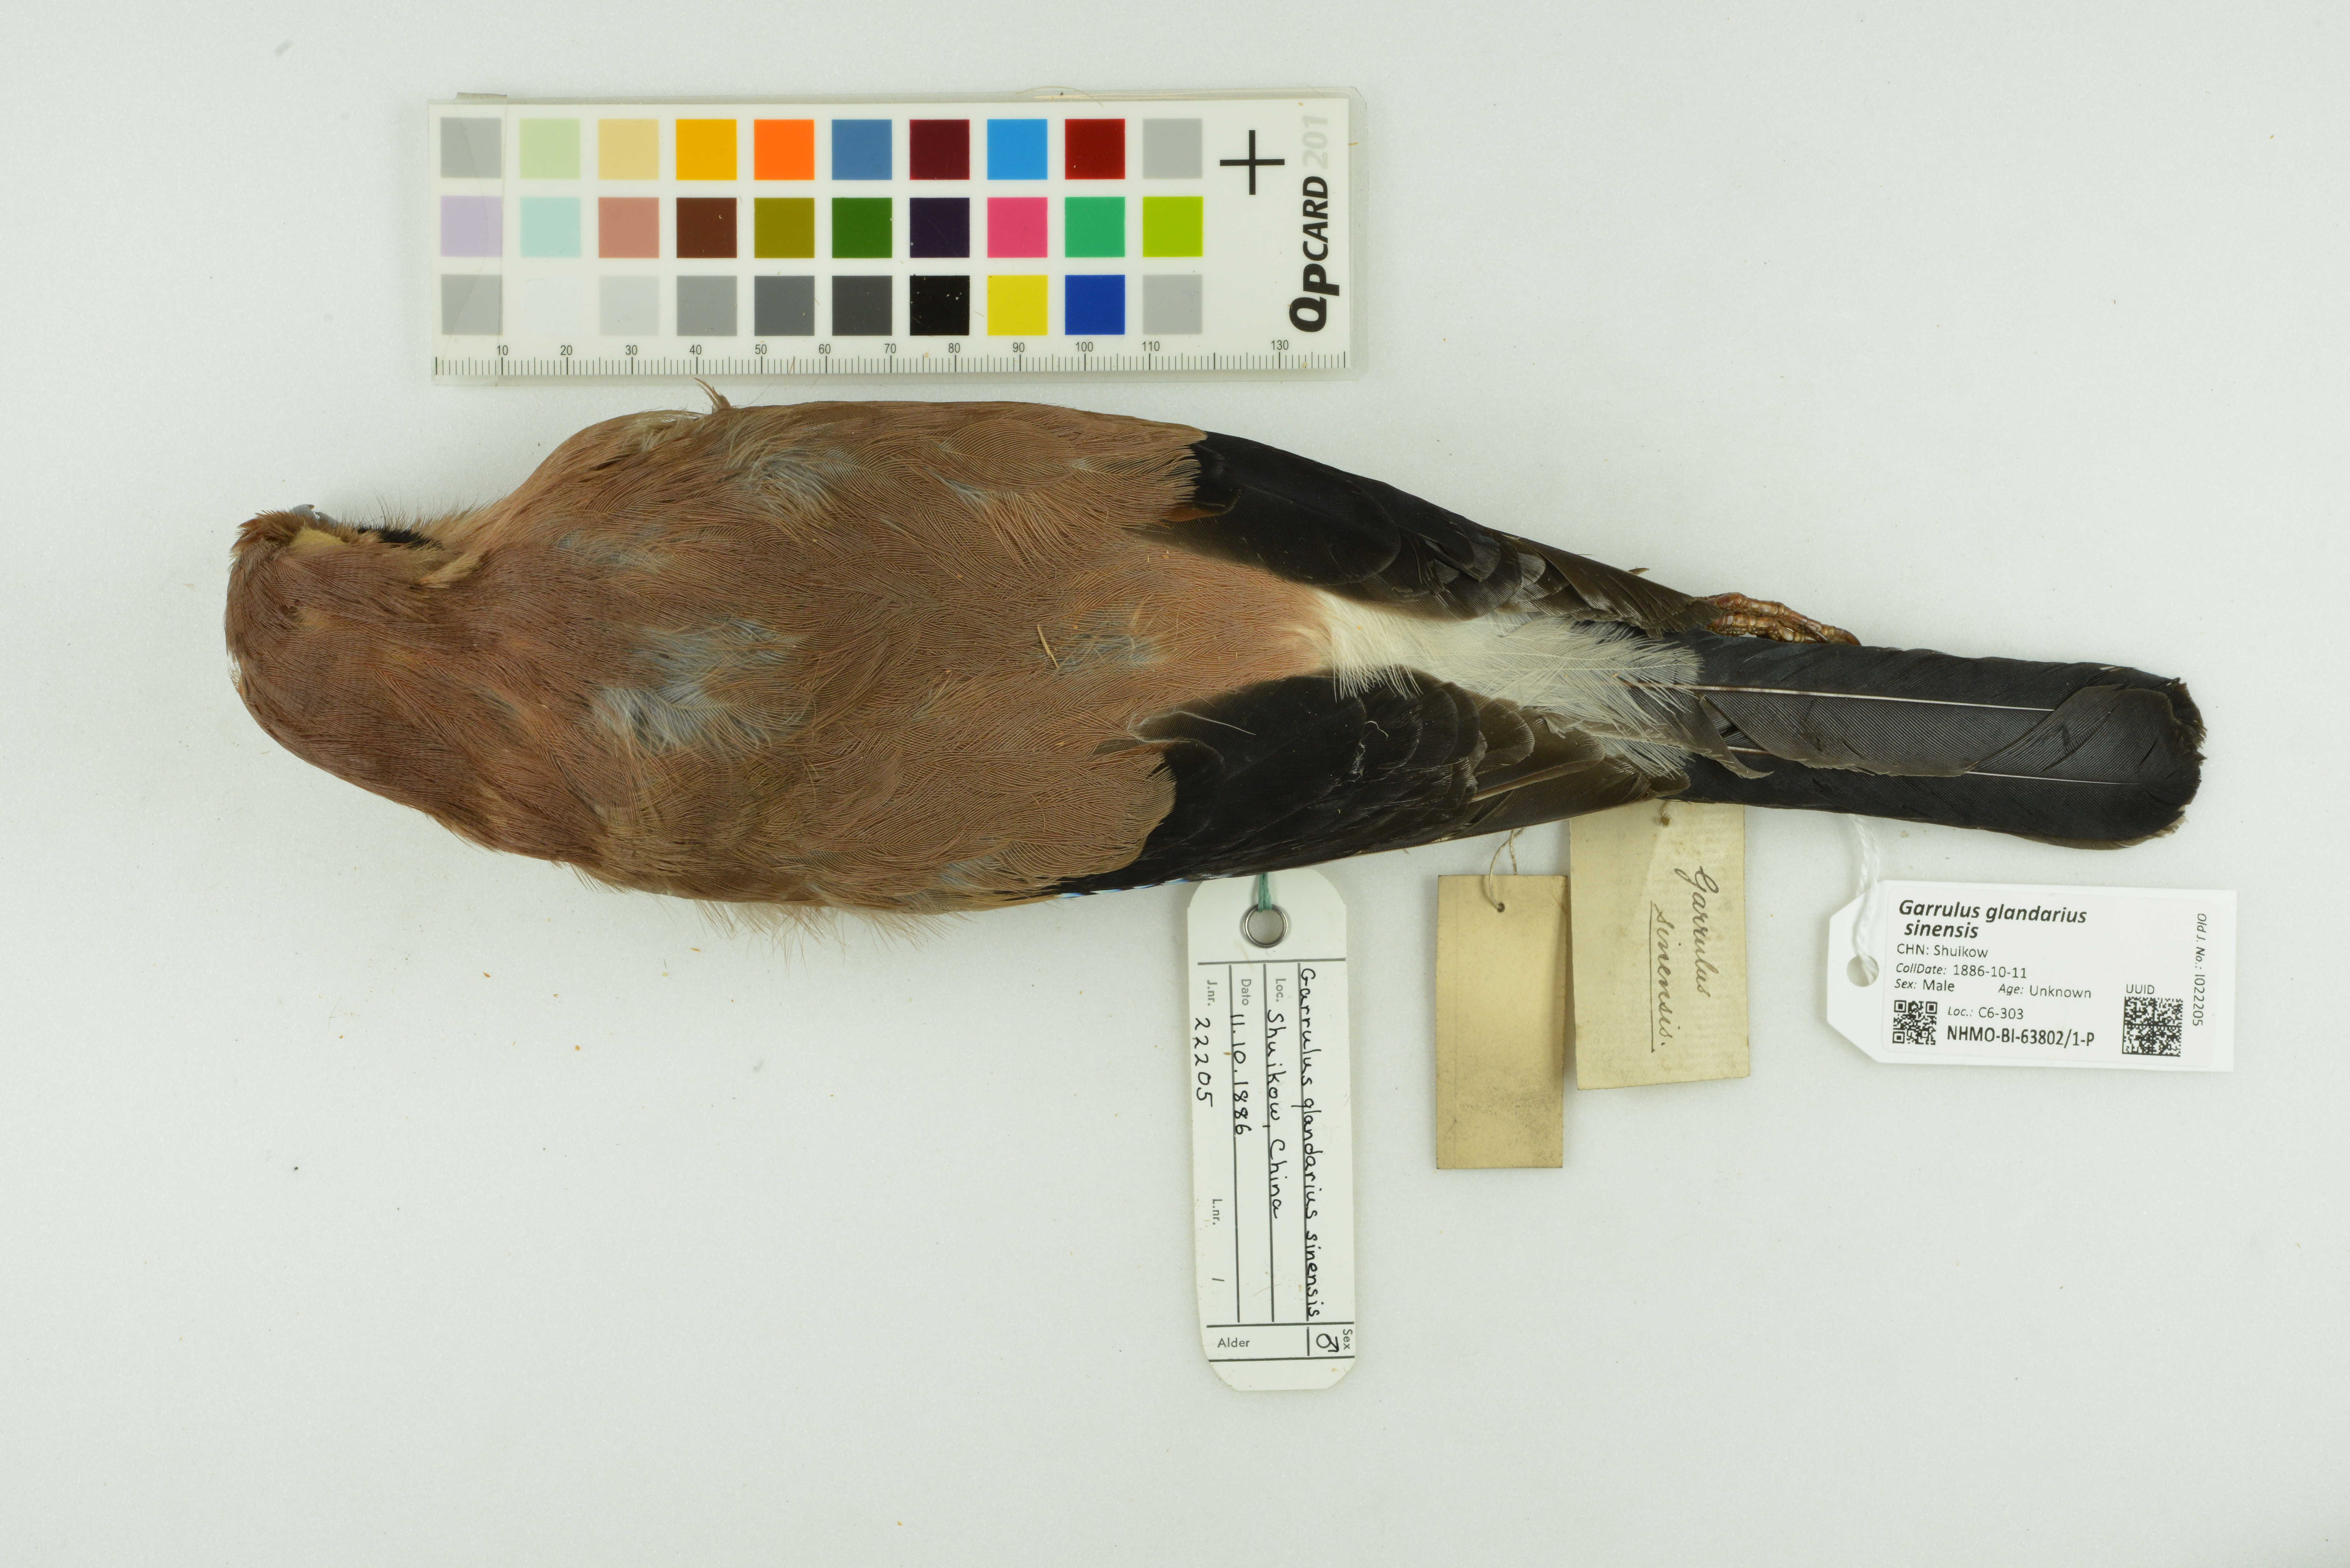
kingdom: Animalia
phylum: Chordata
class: Aves
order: Passeriformes
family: Corvidae
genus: Garrulus
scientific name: Garrulus glandarius
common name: Eurasian jay
